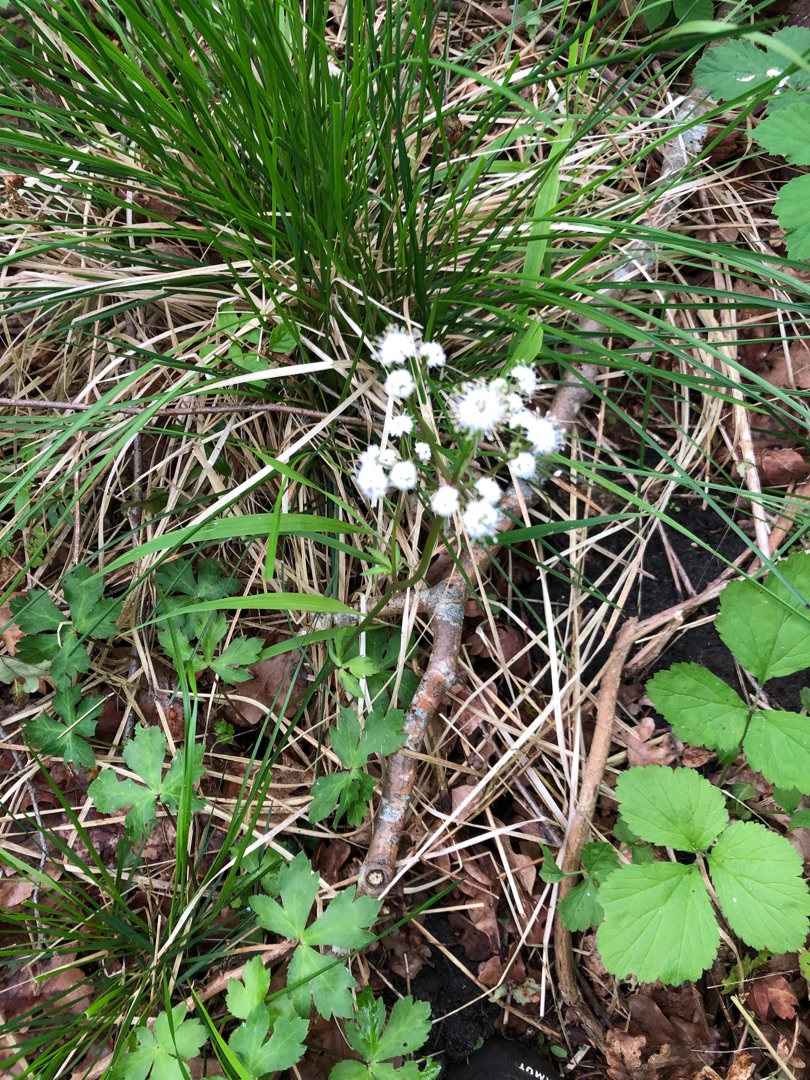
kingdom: Plantae
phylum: Tracheophyta
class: Magnoliopsida
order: Apiales
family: Apiaceae
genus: Sanicula
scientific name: Sanicula europaea
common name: Sanikel
